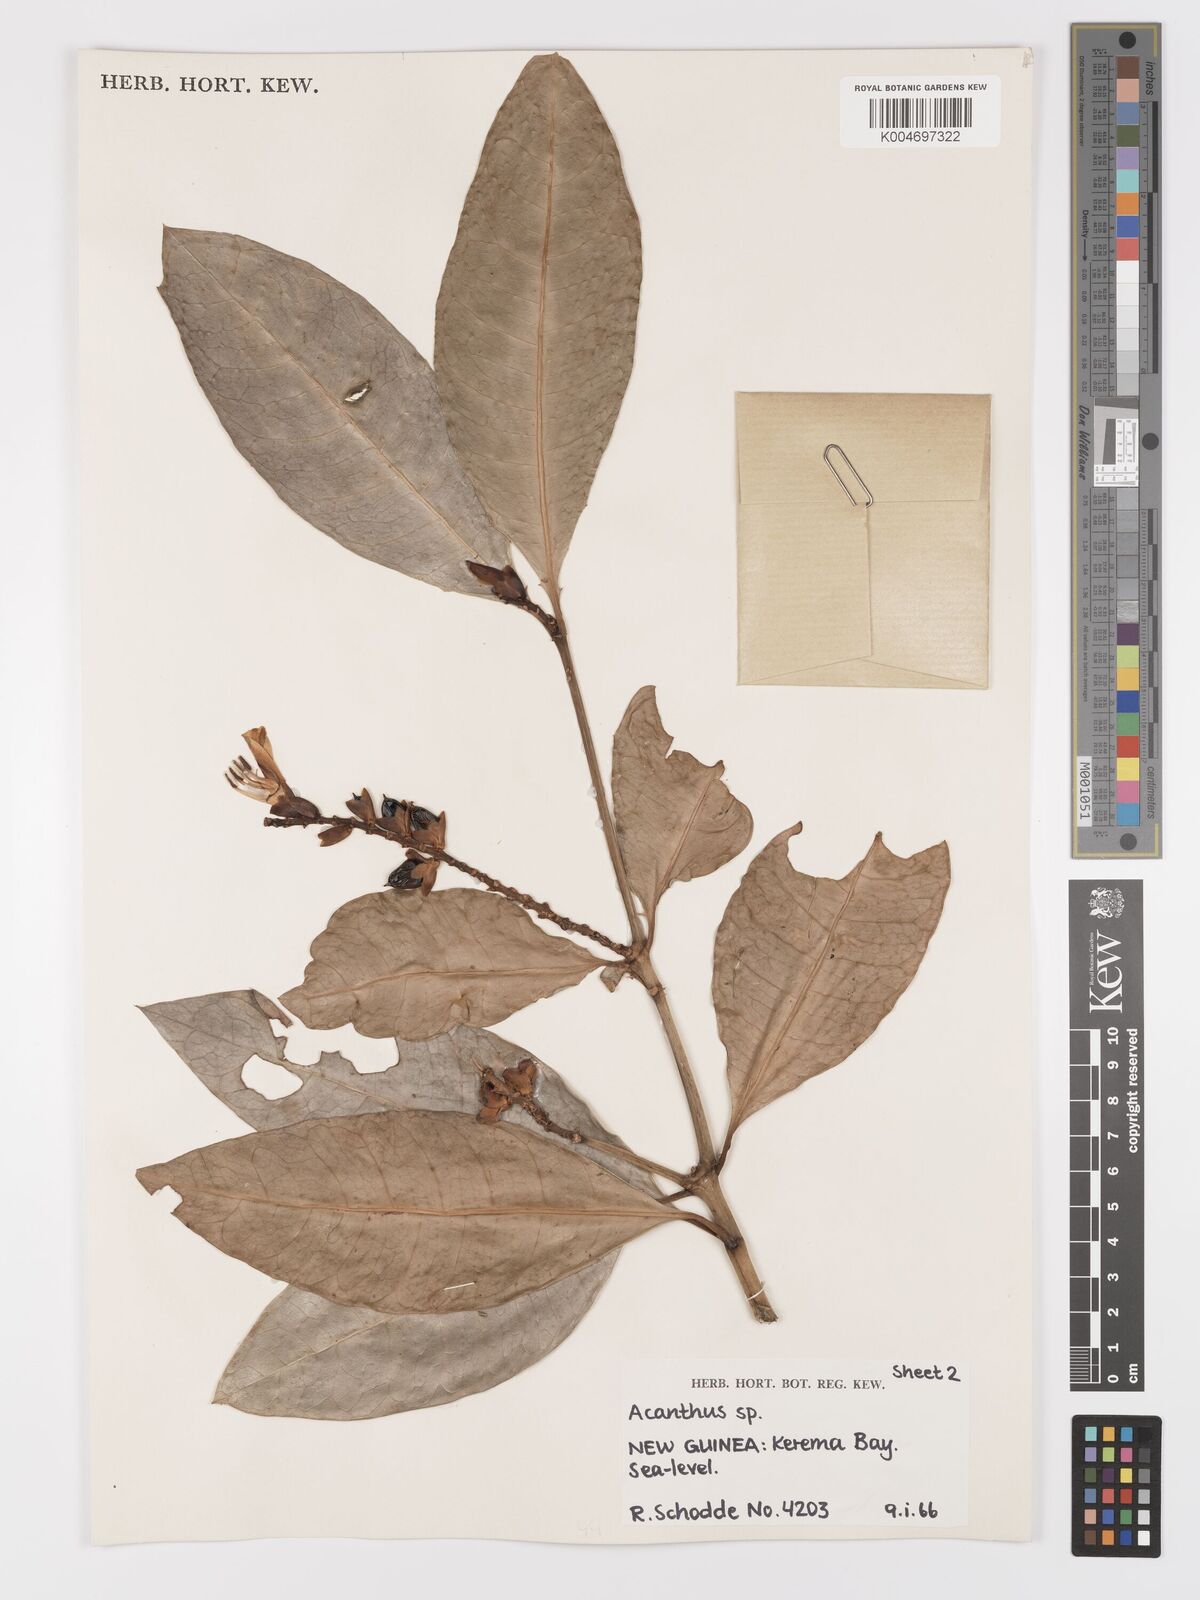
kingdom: Plantae
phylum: Tracheophyta
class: Magnoliopsida
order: Lamiales
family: Acanthaceae
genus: Acanthus
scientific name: Acanthus
